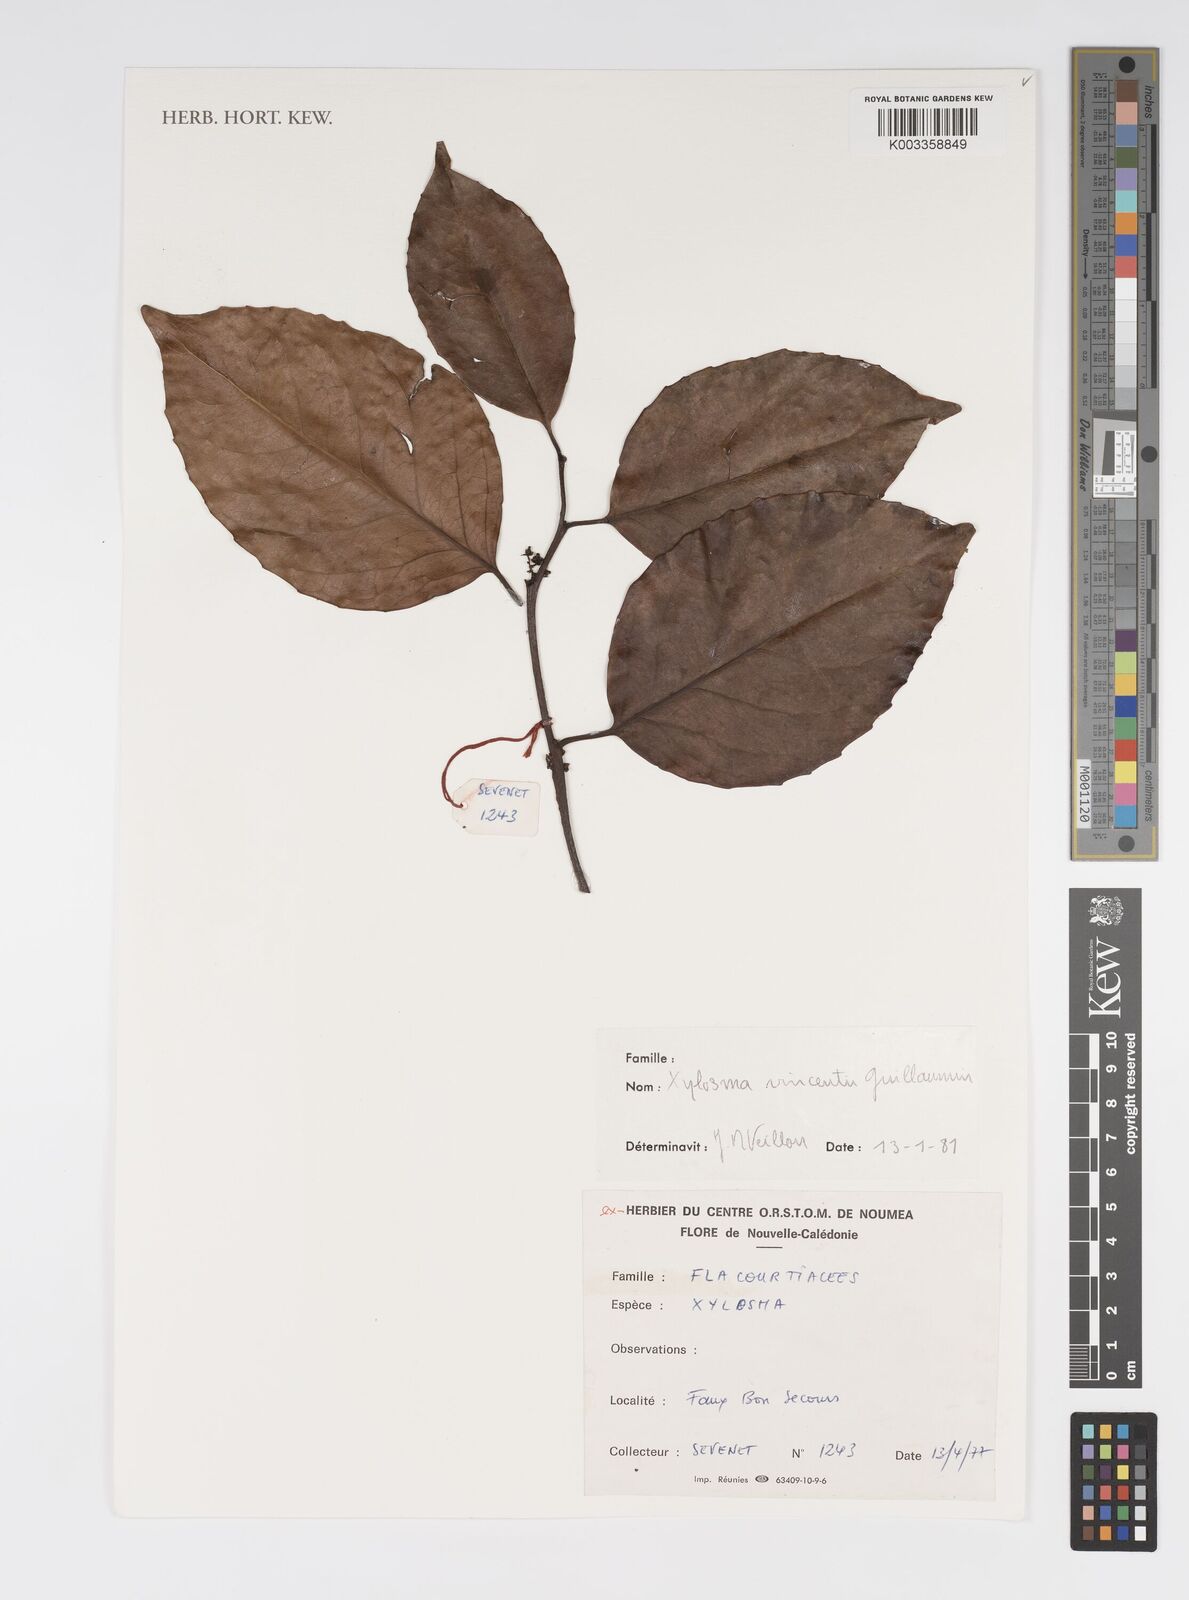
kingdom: Plantae
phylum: Tracheophyta
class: Magnoliopsida
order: Malpighiales
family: Salicaceae
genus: Xylosma
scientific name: Xylosma vincentii
